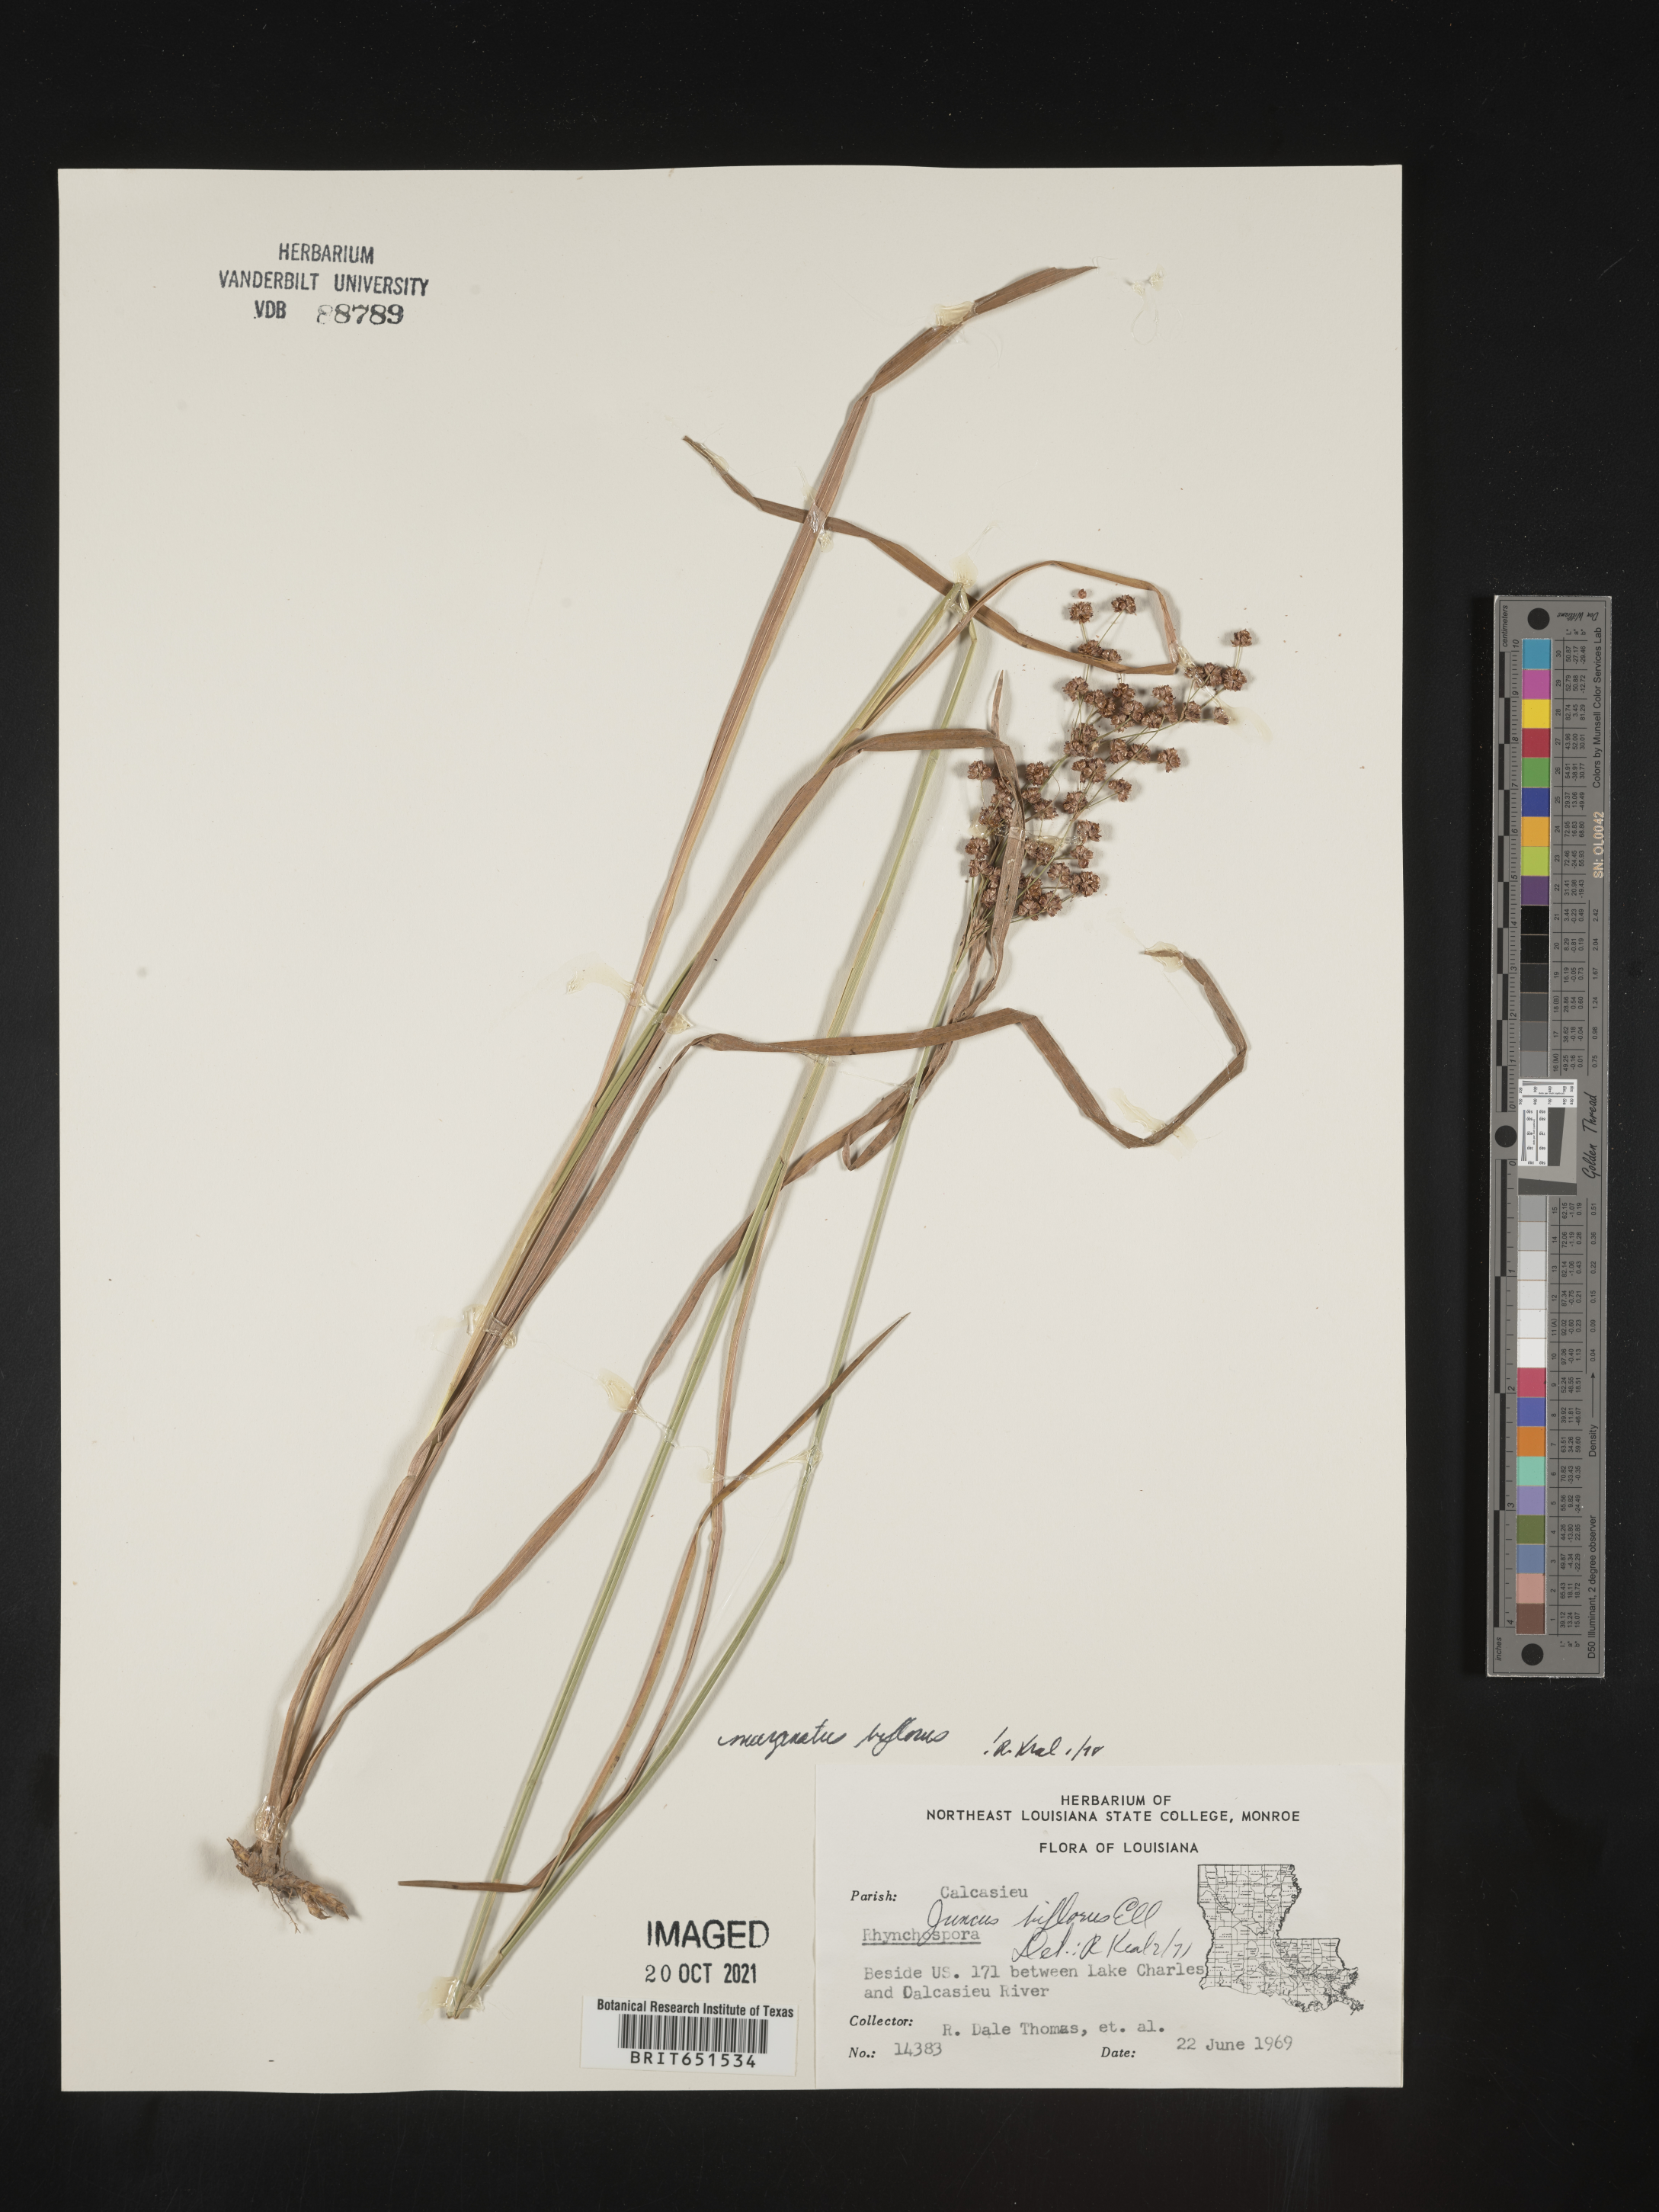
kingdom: Plantae
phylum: Tracheophyta
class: Liliopsida
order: Poales
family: Juncaceae
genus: Juncus
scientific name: Juncus biflorus
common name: Two-flowered rush
